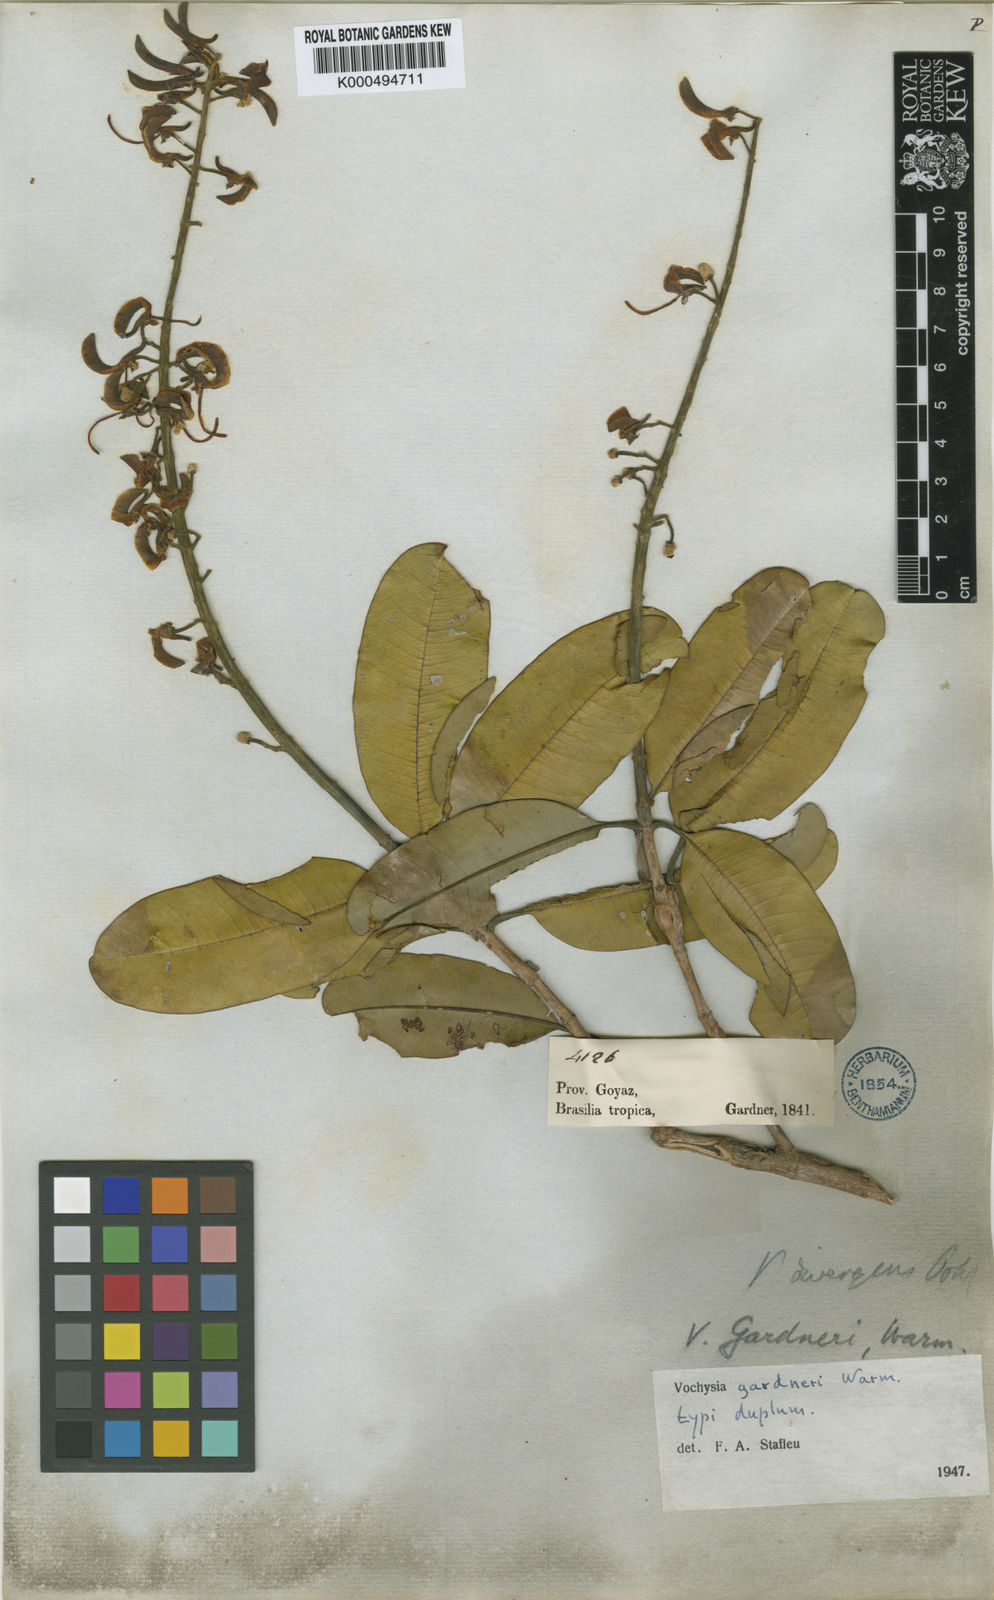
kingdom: Plantae
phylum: Tracheophyta
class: Magnoliopsida
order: Myrtales
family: Vochysiaceae
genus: Vochysia
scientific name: Vochysia gardneri
